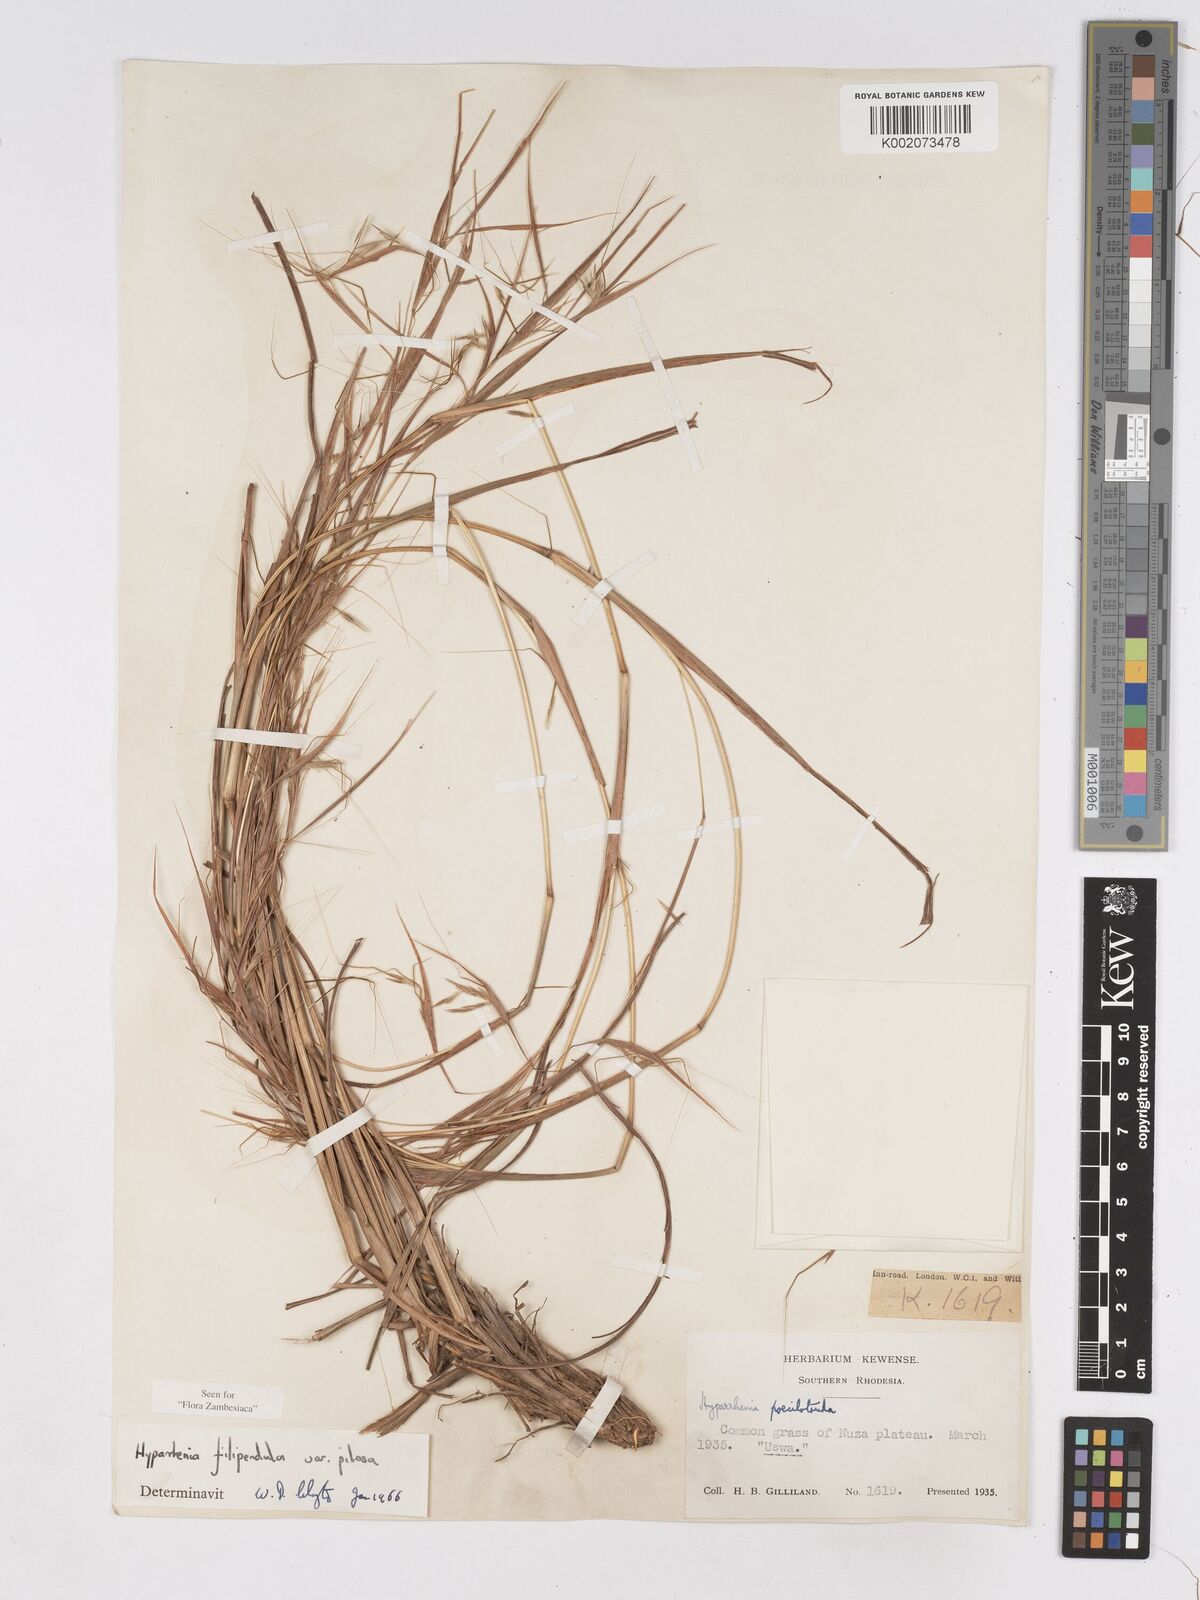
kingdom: Plantae
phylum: Tracheophyta
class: Liliopsida
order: Poales
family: Poaceae
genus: Hyparrhenia
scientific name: Hyparrhenia filipendula
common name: Tambookie grass
